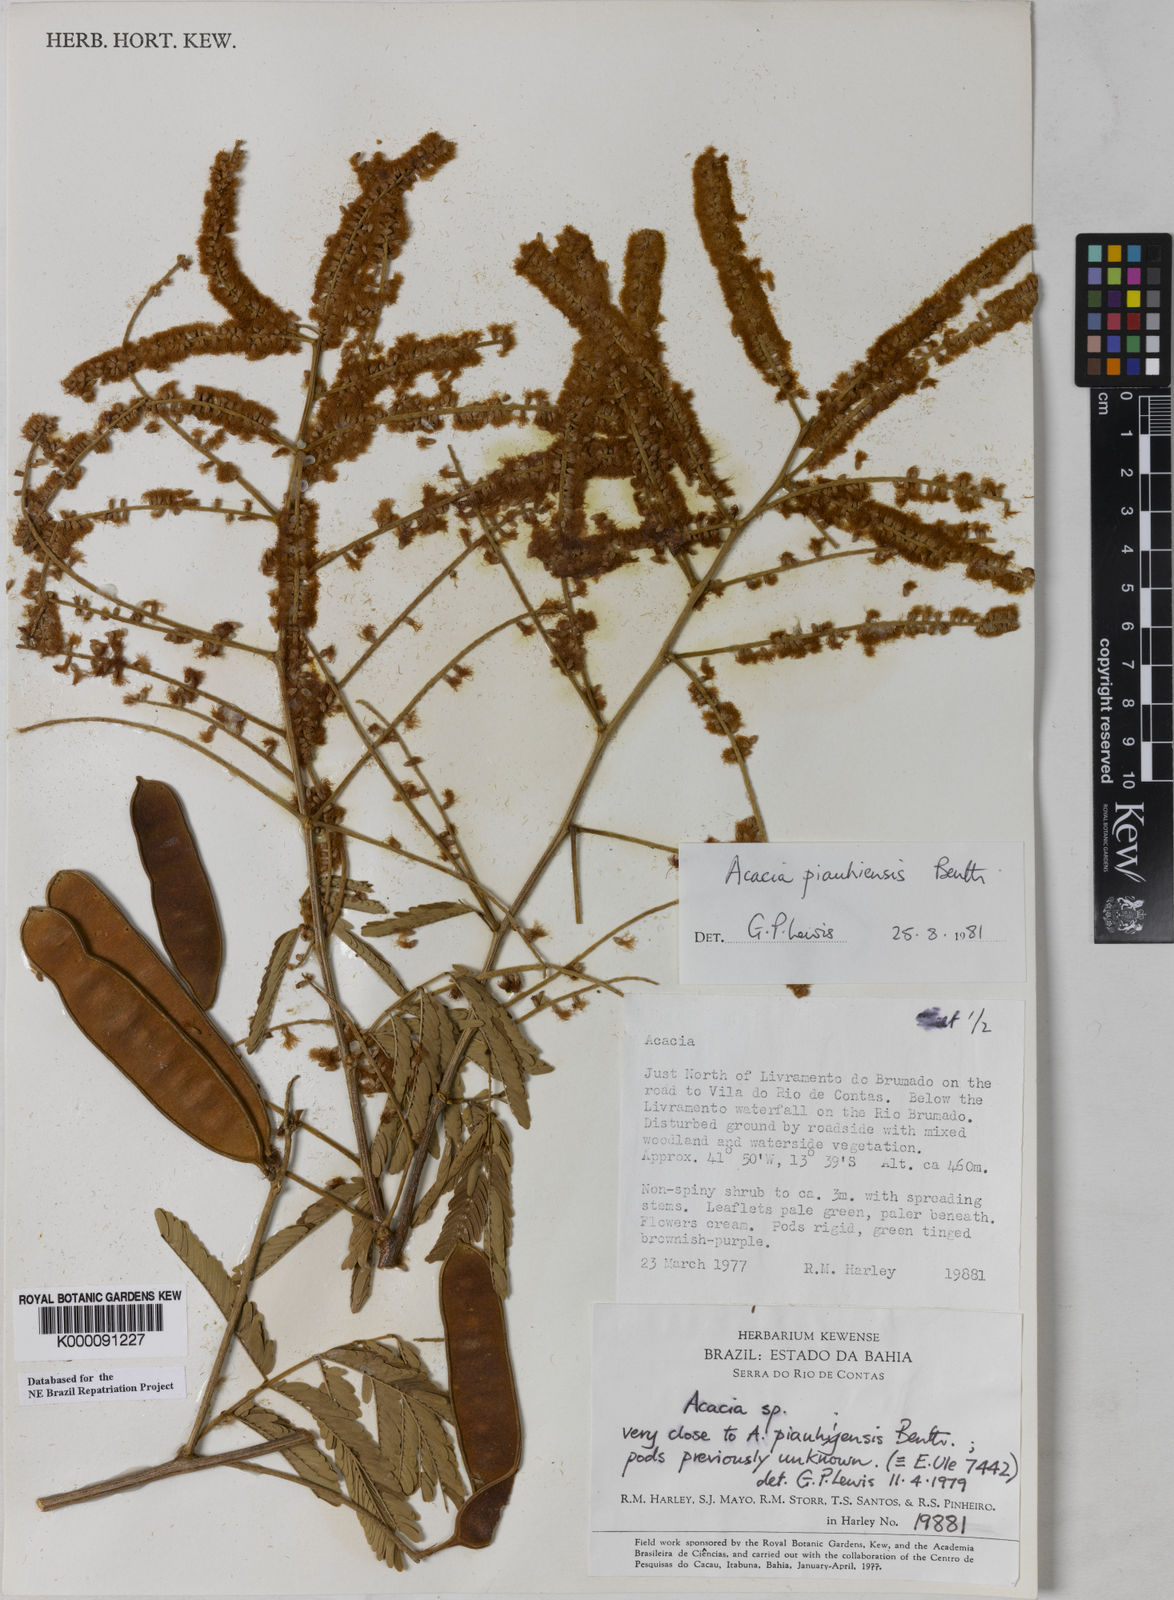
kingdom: Plantae
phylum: Tracheophyta
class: Magnoliopsida
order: Fabales
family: Fabaceae
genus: Senegalia
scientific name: Senegalia piauhiensis
